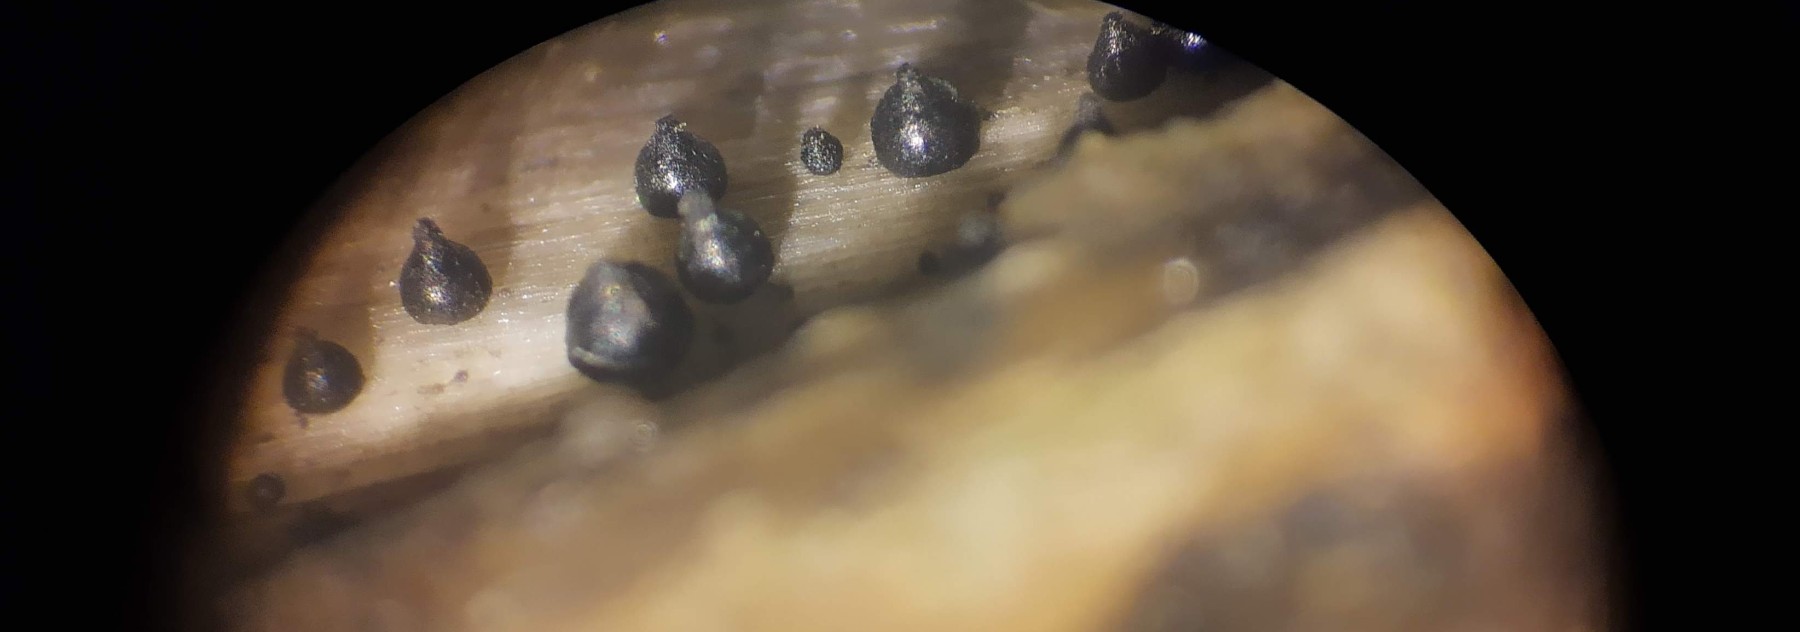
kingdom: Fungi
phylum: Ascomycota
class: Dothideomycetes
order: Pleosporales
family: Leptosphaeriaceae
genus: Leptosphaeria
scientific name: Leptosphaeria acuta
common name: spids kulkegle
